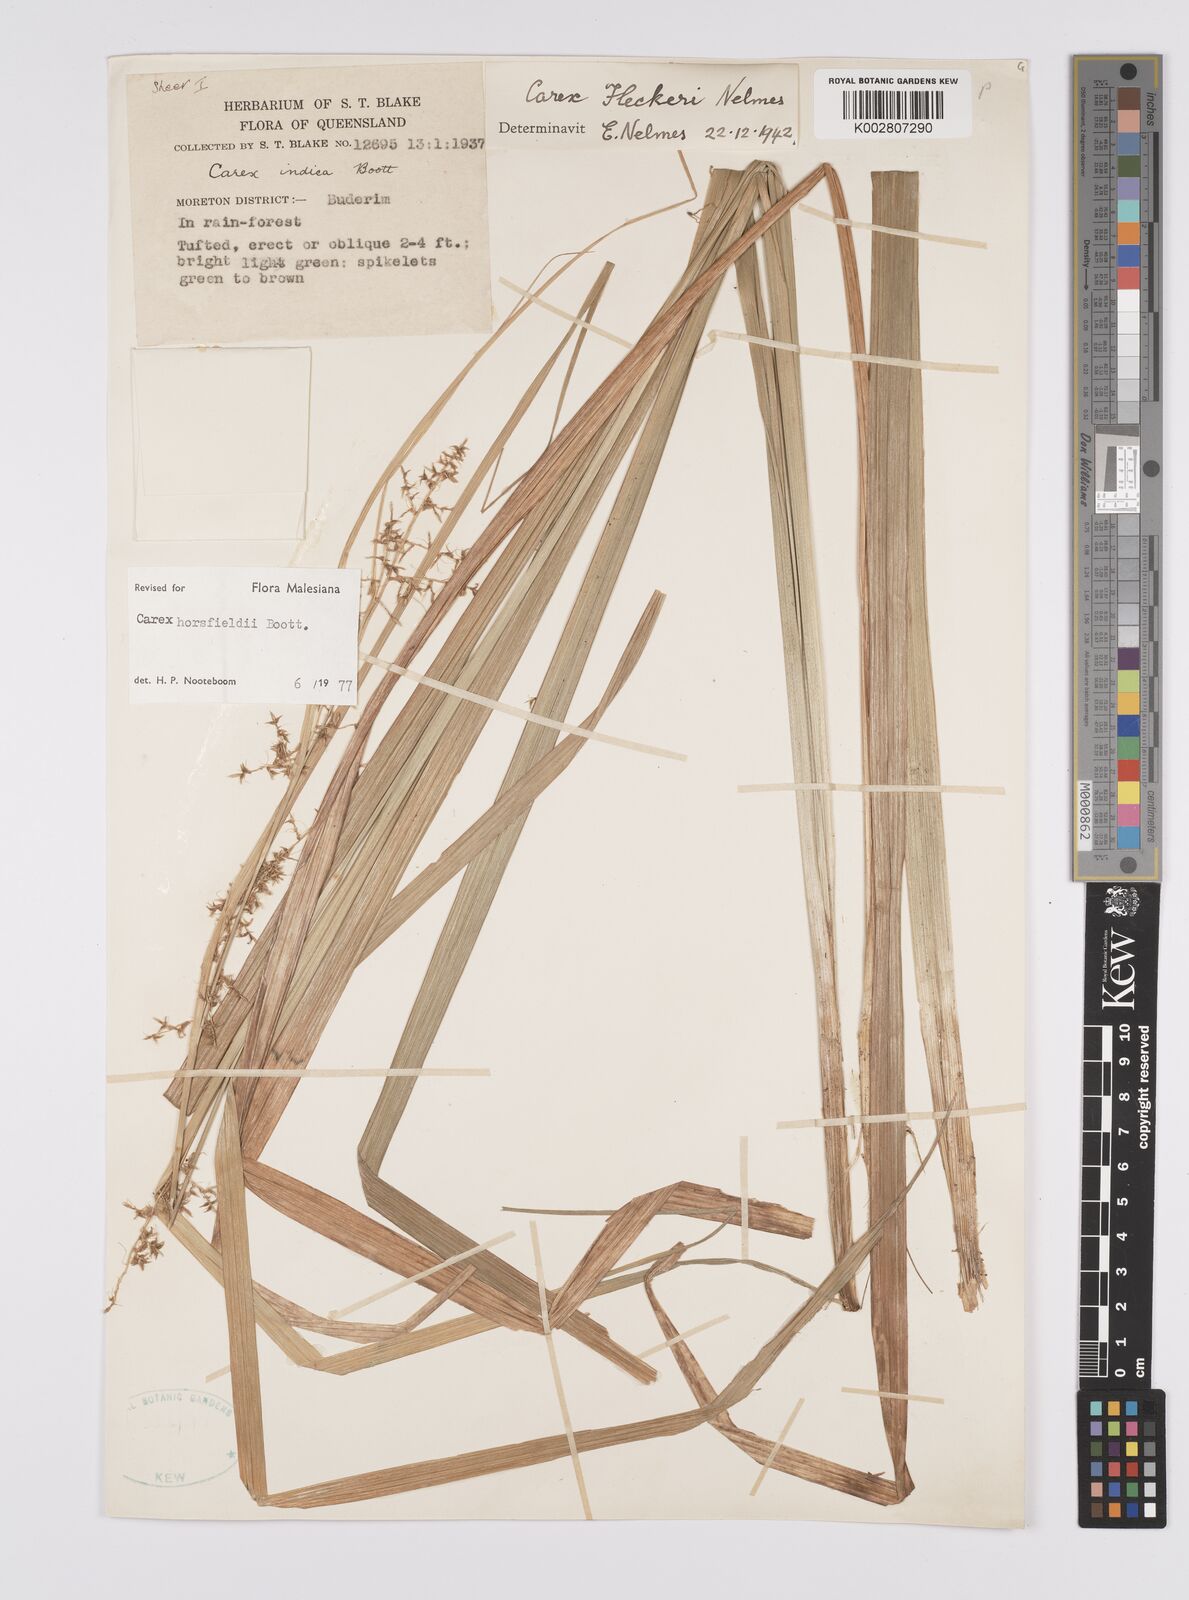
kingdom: Plantae
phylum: Tracheophyta
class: Liliopsida
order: Poales
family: Cyperaceae
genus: Carex
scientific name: Carex horsfieldii
